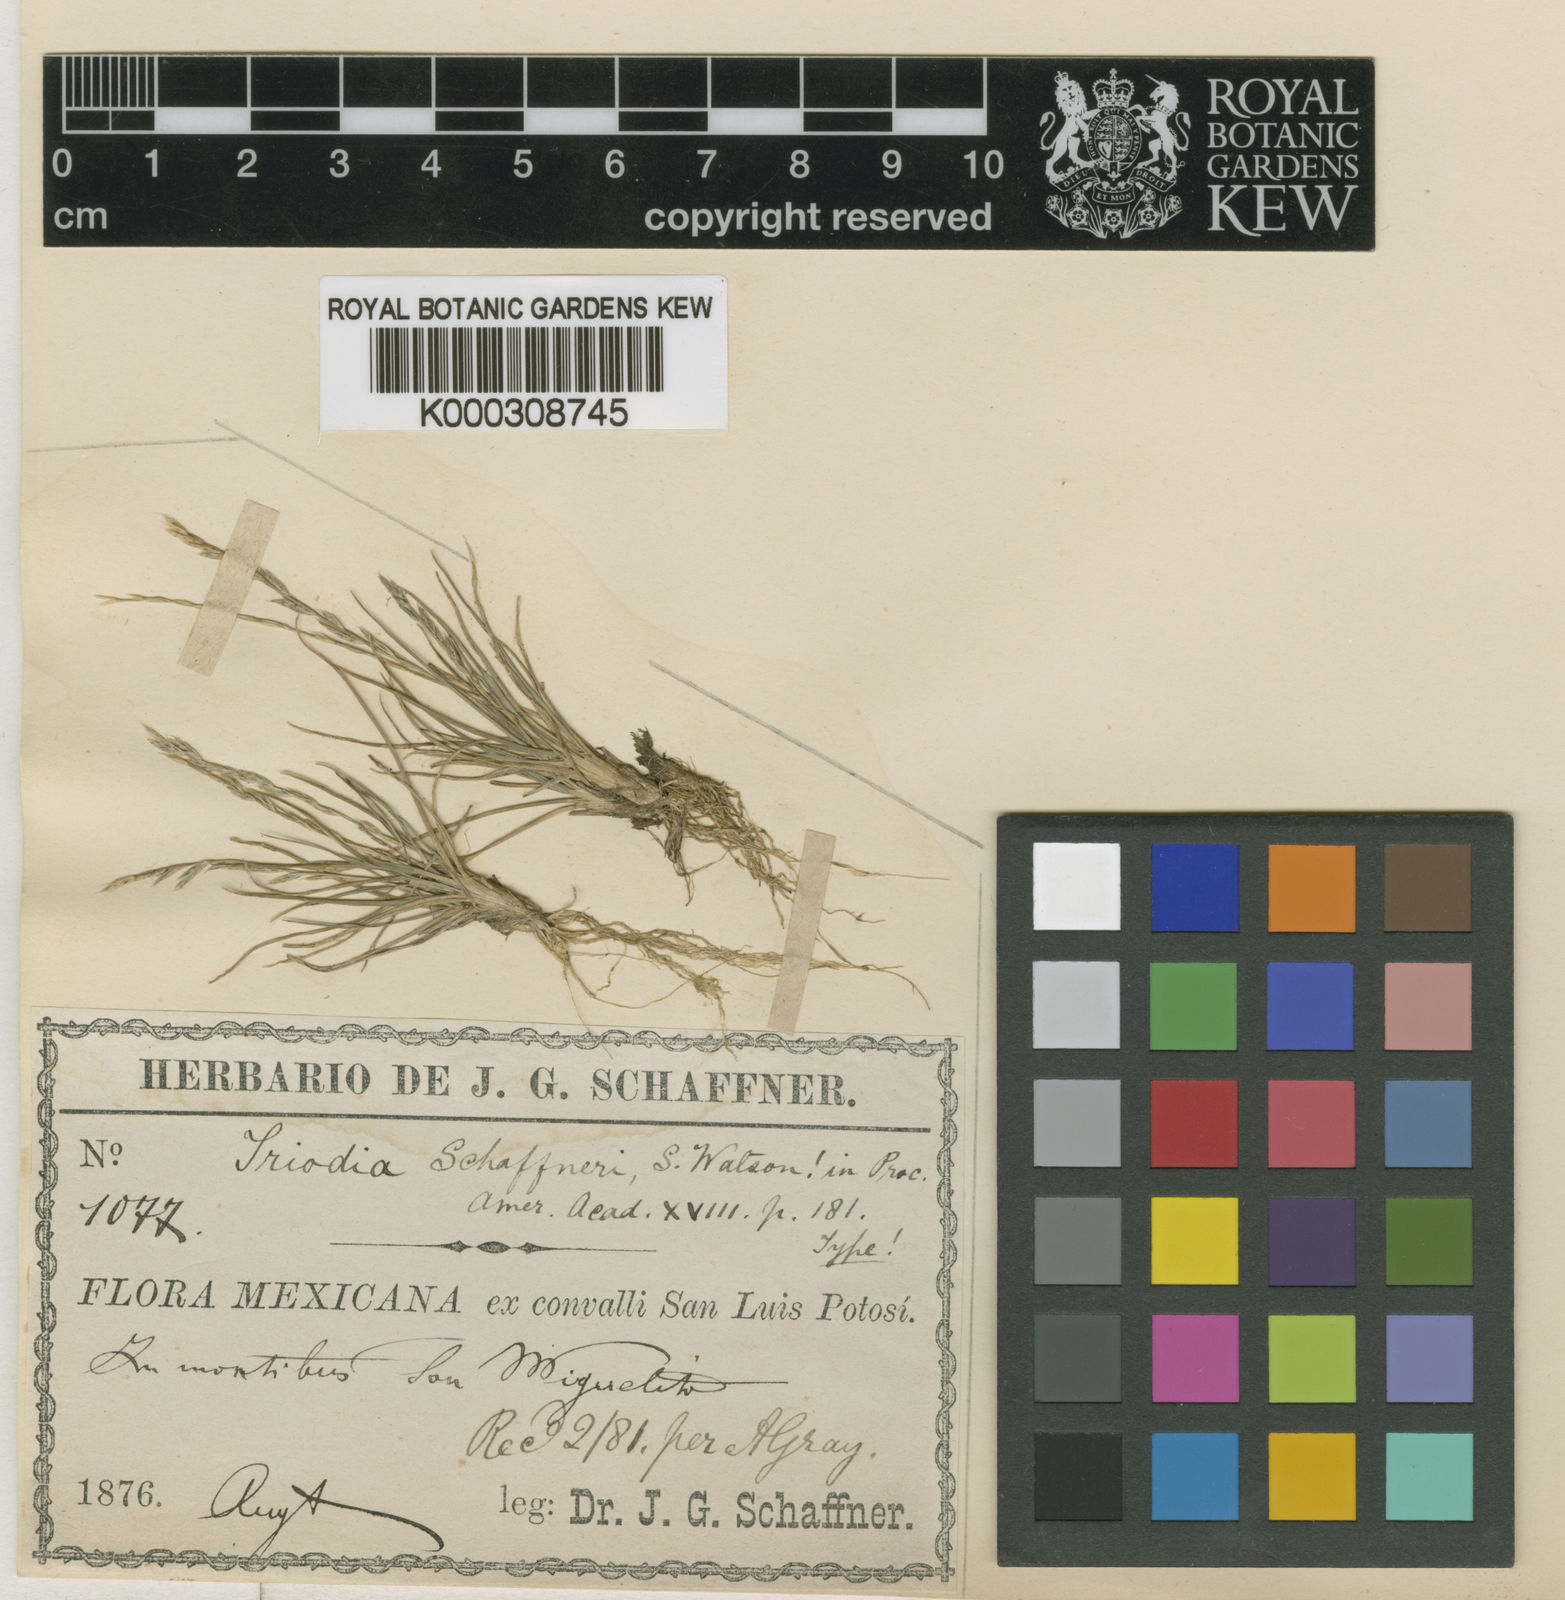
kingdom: Plantae
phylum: Tracheophyta
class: Liliopsida
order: Poales
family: Poaceae
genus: Tripogonella
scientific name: Tripogonella spicata
